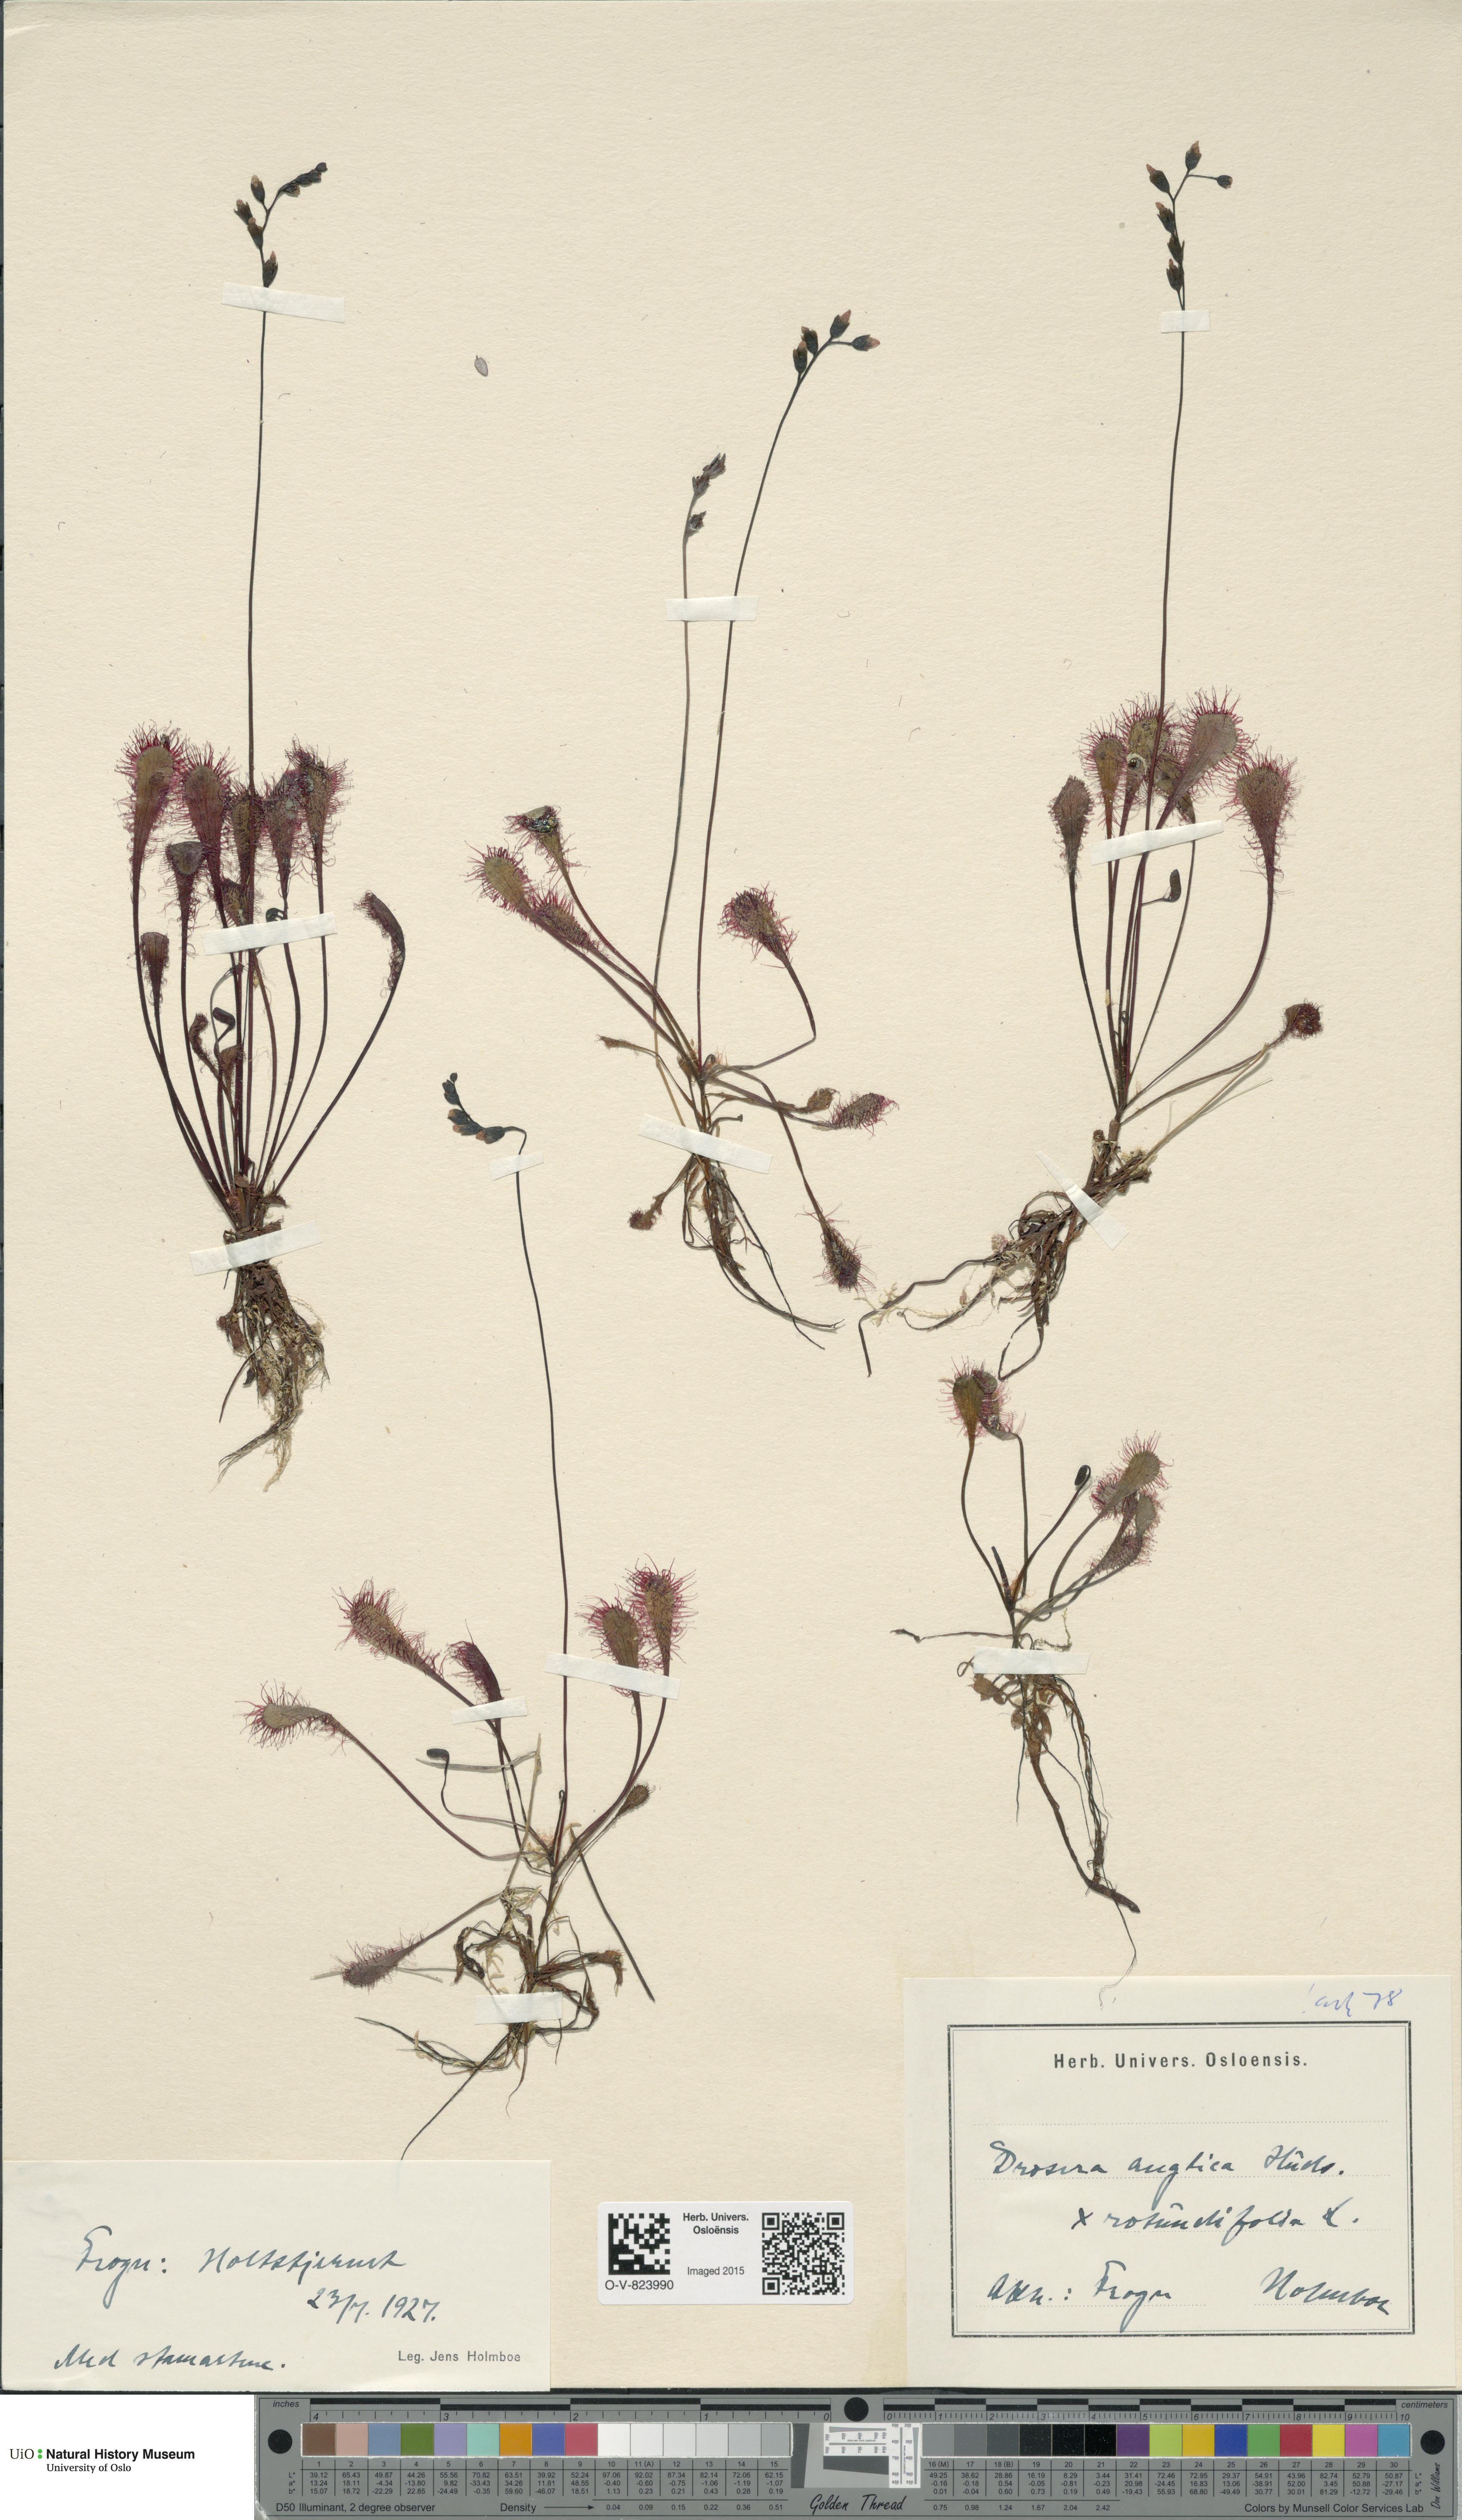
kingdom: Plantae
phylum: Tracheophyta
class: Magnoliopsida
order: Caryophyllales
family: Droseraceae
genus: Drosera
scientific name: Drosera
